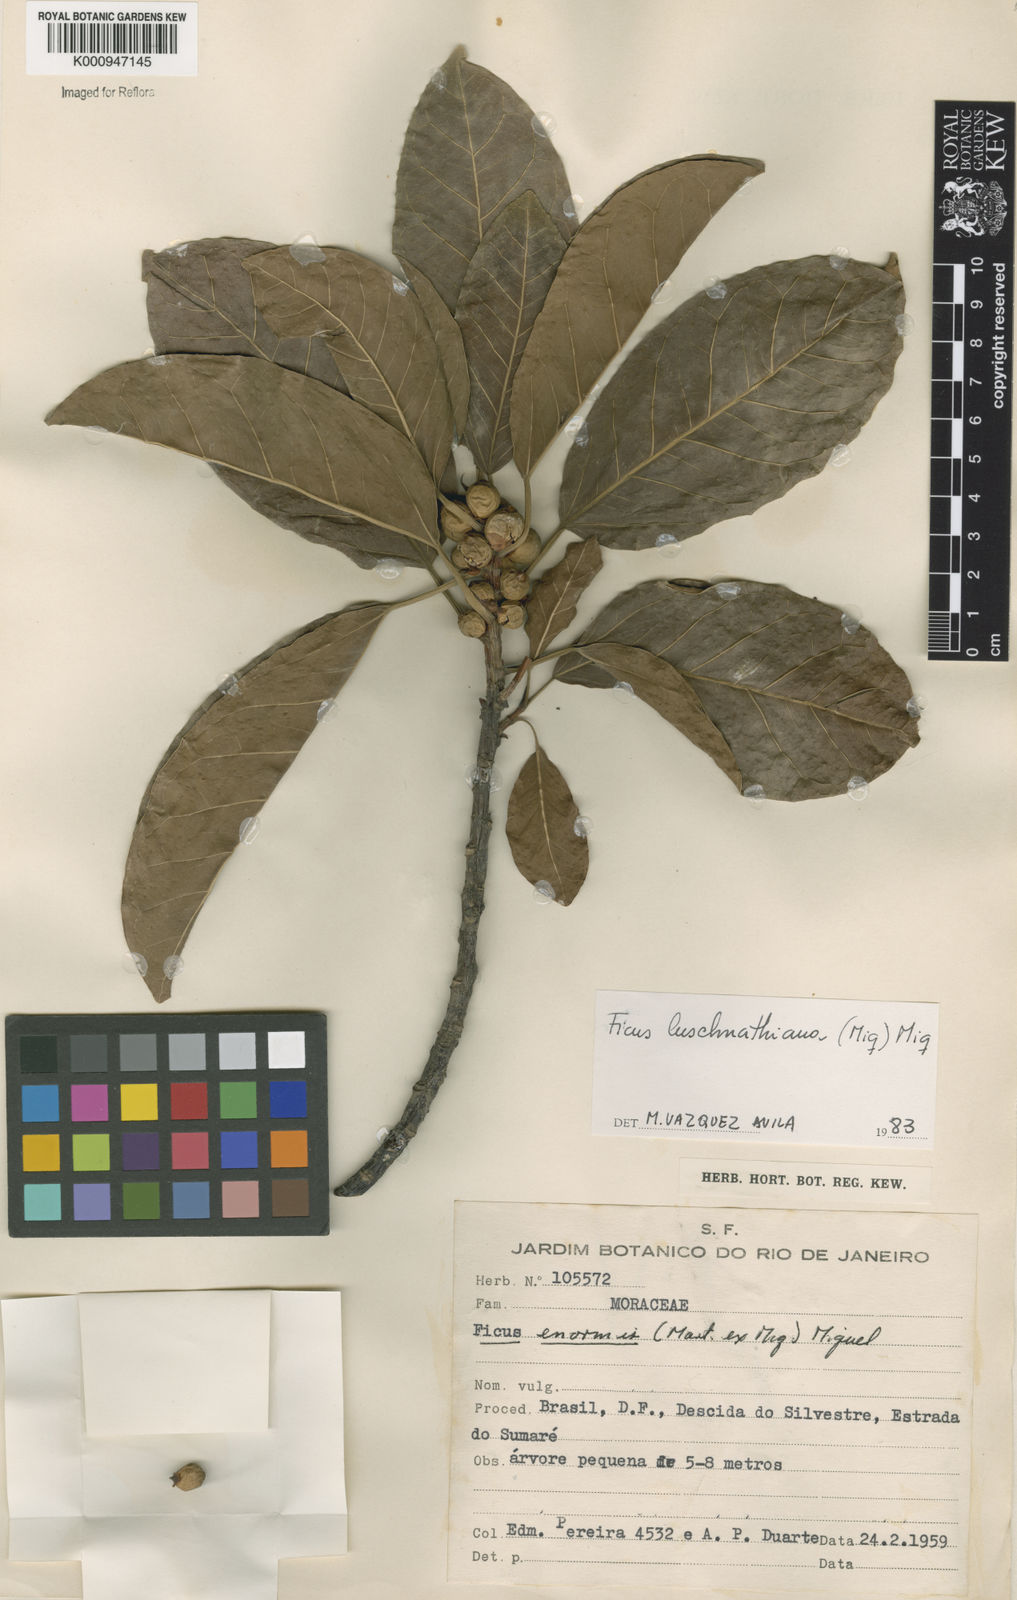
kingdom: Plantae
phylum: Tracheophyta
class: Magnoliopsida
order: Rosales
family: Moraceae
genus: Ficus
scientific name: Ficus luschnathiana
